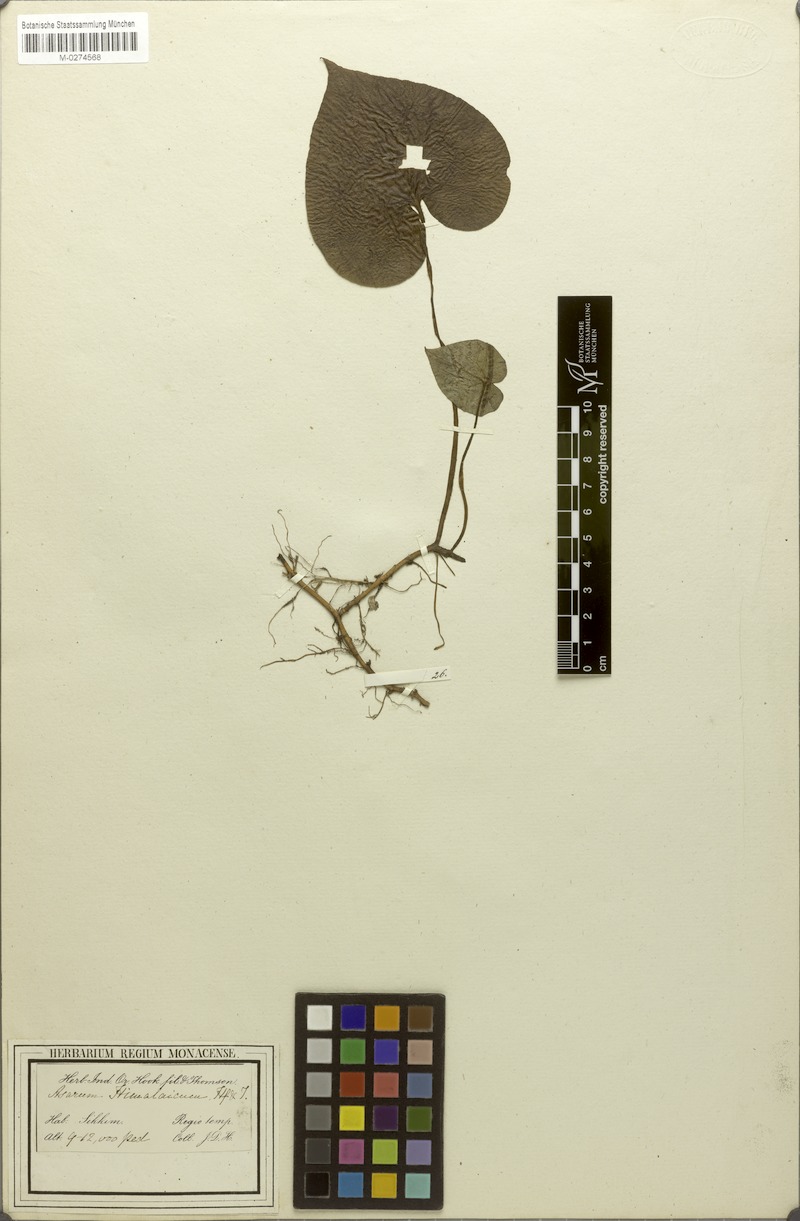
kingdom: Plantae
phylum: Tracheophyta
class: Magnoliopsida
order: Piperales
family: Aristolochiaceae
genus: Asarum
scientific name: Asarum himalaicum
